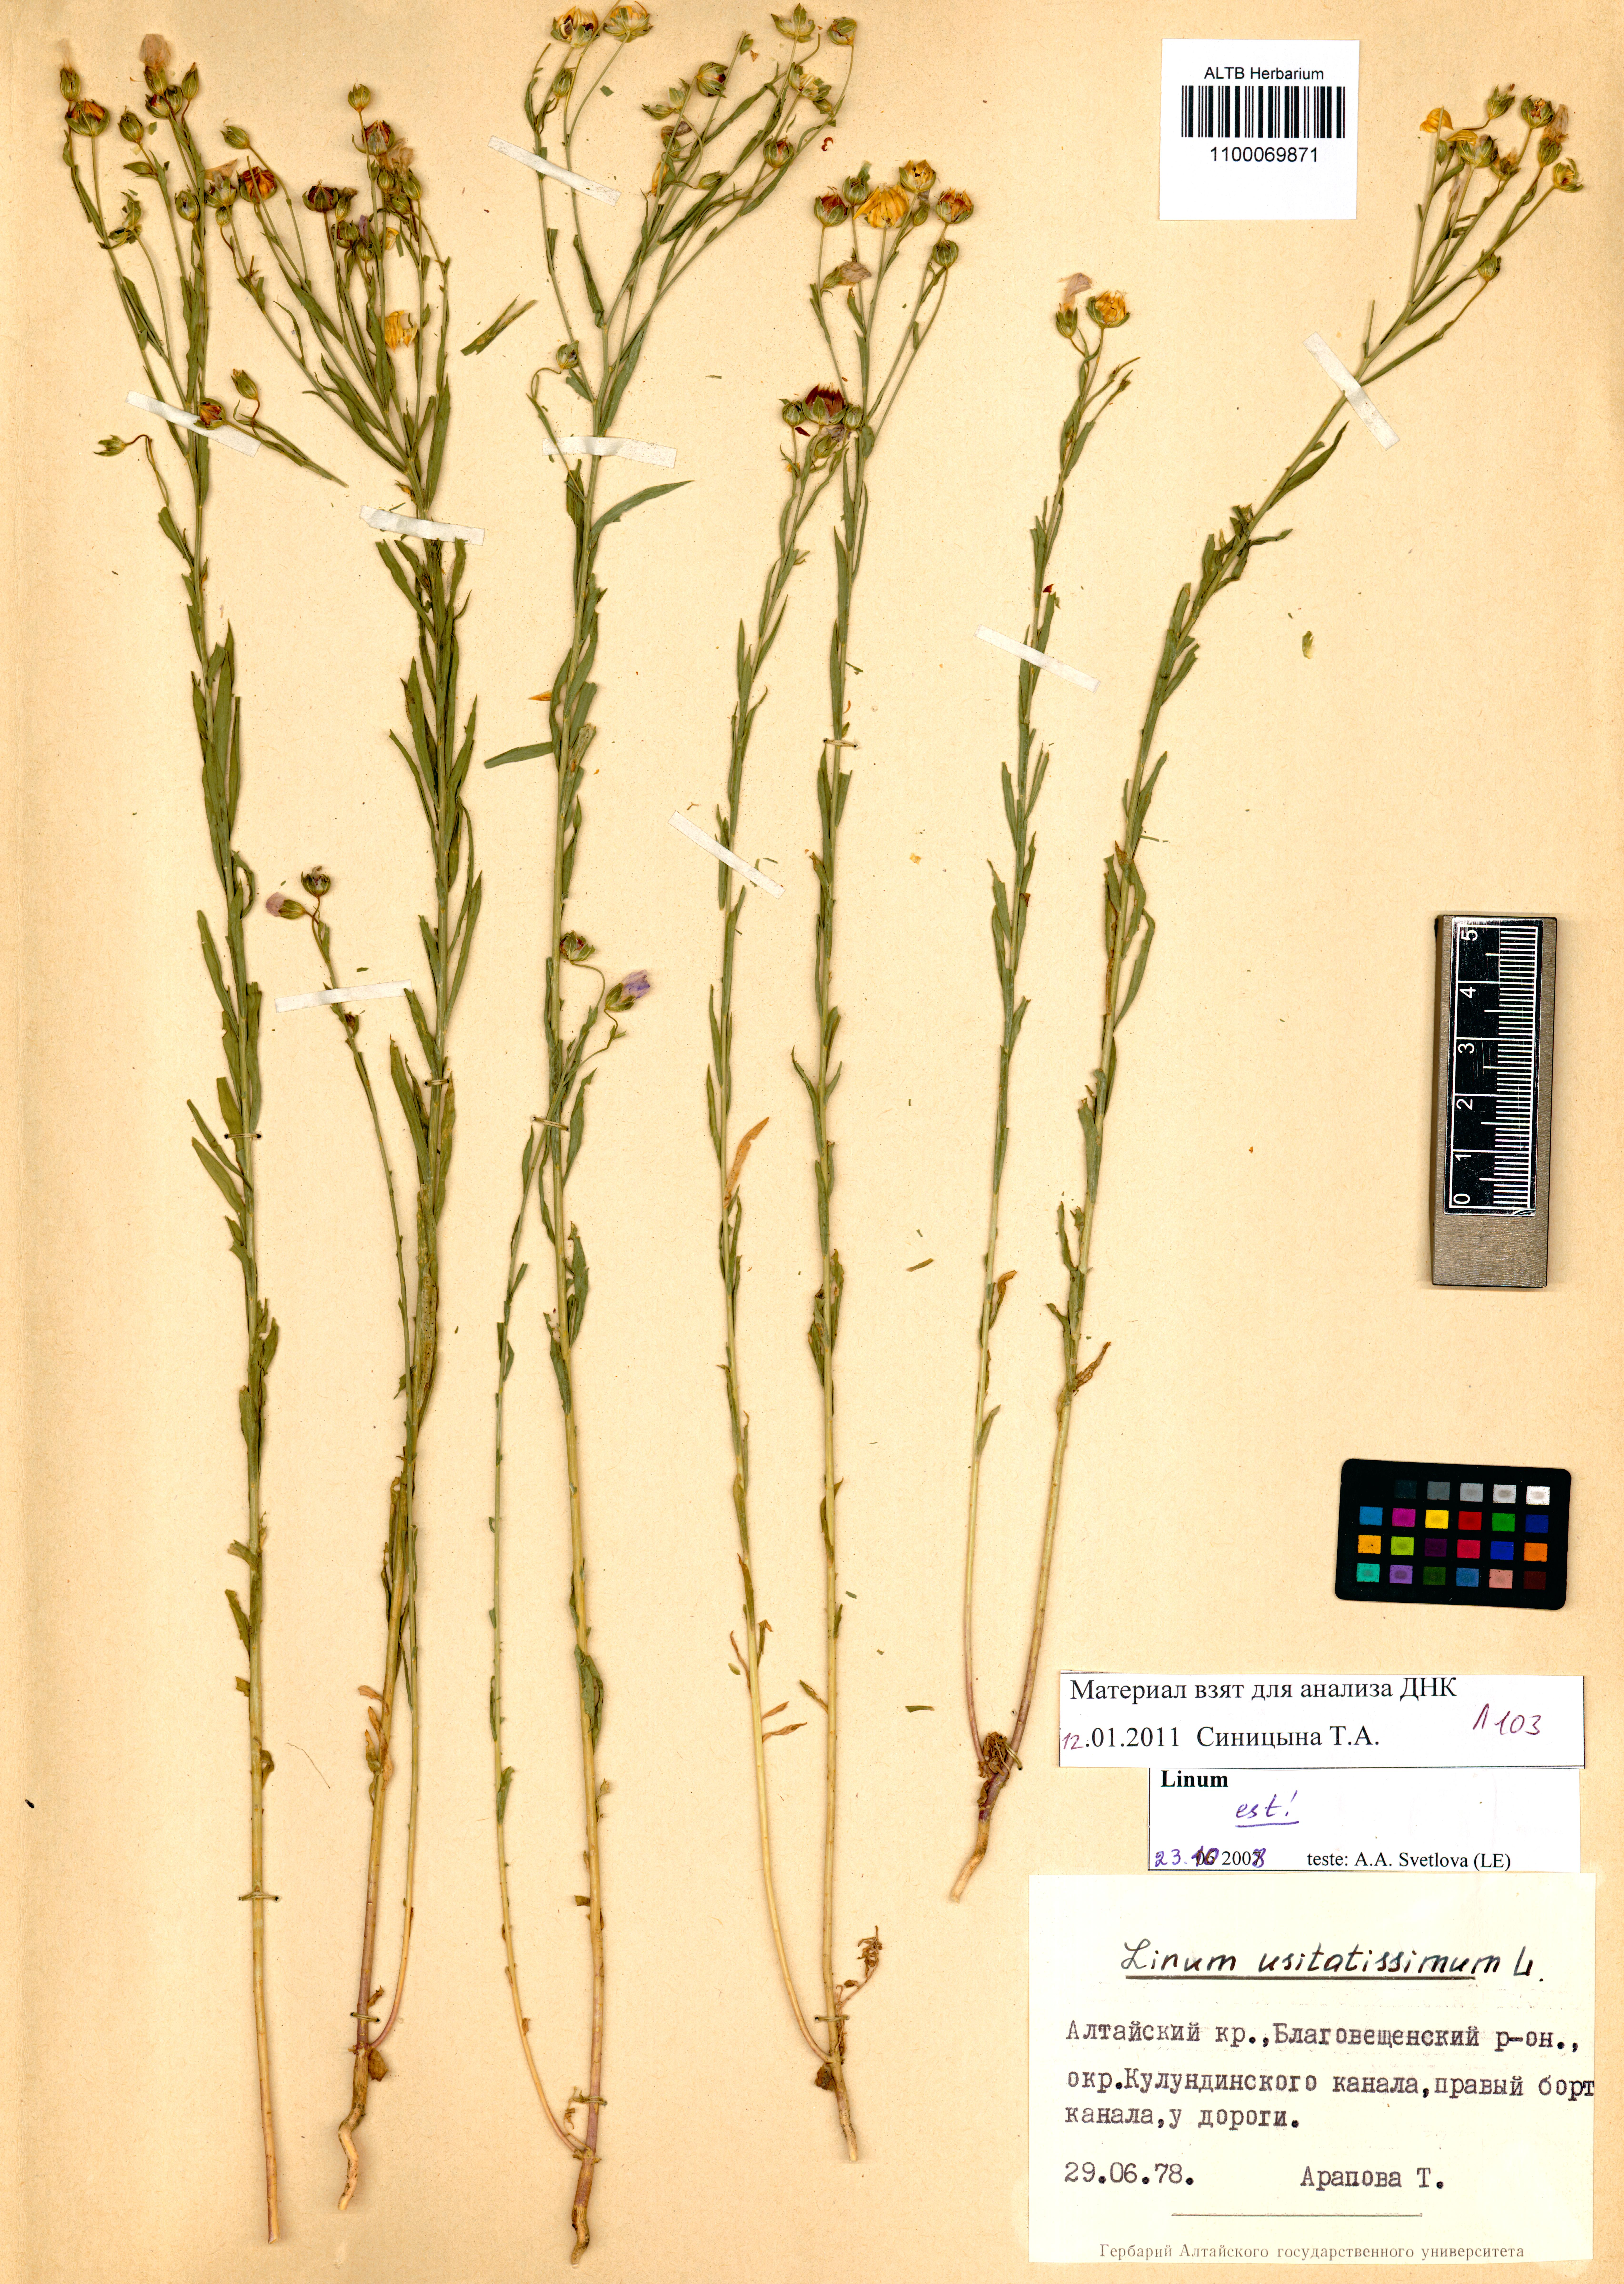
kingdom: Plantae
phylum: Tracheophyta
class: Magnoliopsida
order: Malpighiales
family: Linaceae
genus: Linum
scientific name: Linum usitatissimum
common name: Flax
